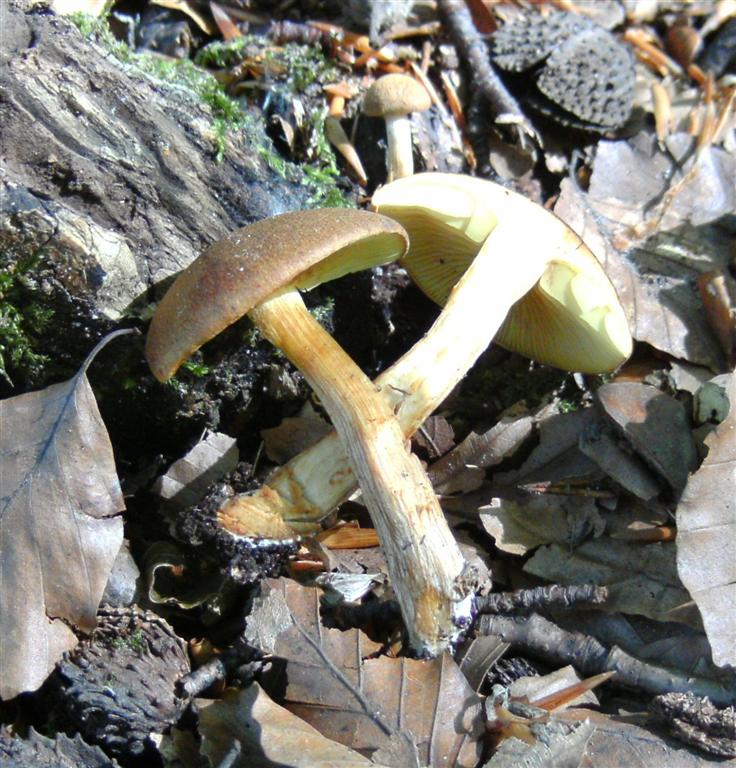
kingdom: Fungi
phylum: Basidiomycota
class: Agaricomycetes
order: Agaricales
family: Hymenogastraceae
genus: Gymnopilus
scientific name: Gymnopilus sapineus
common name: filtet flammehat
